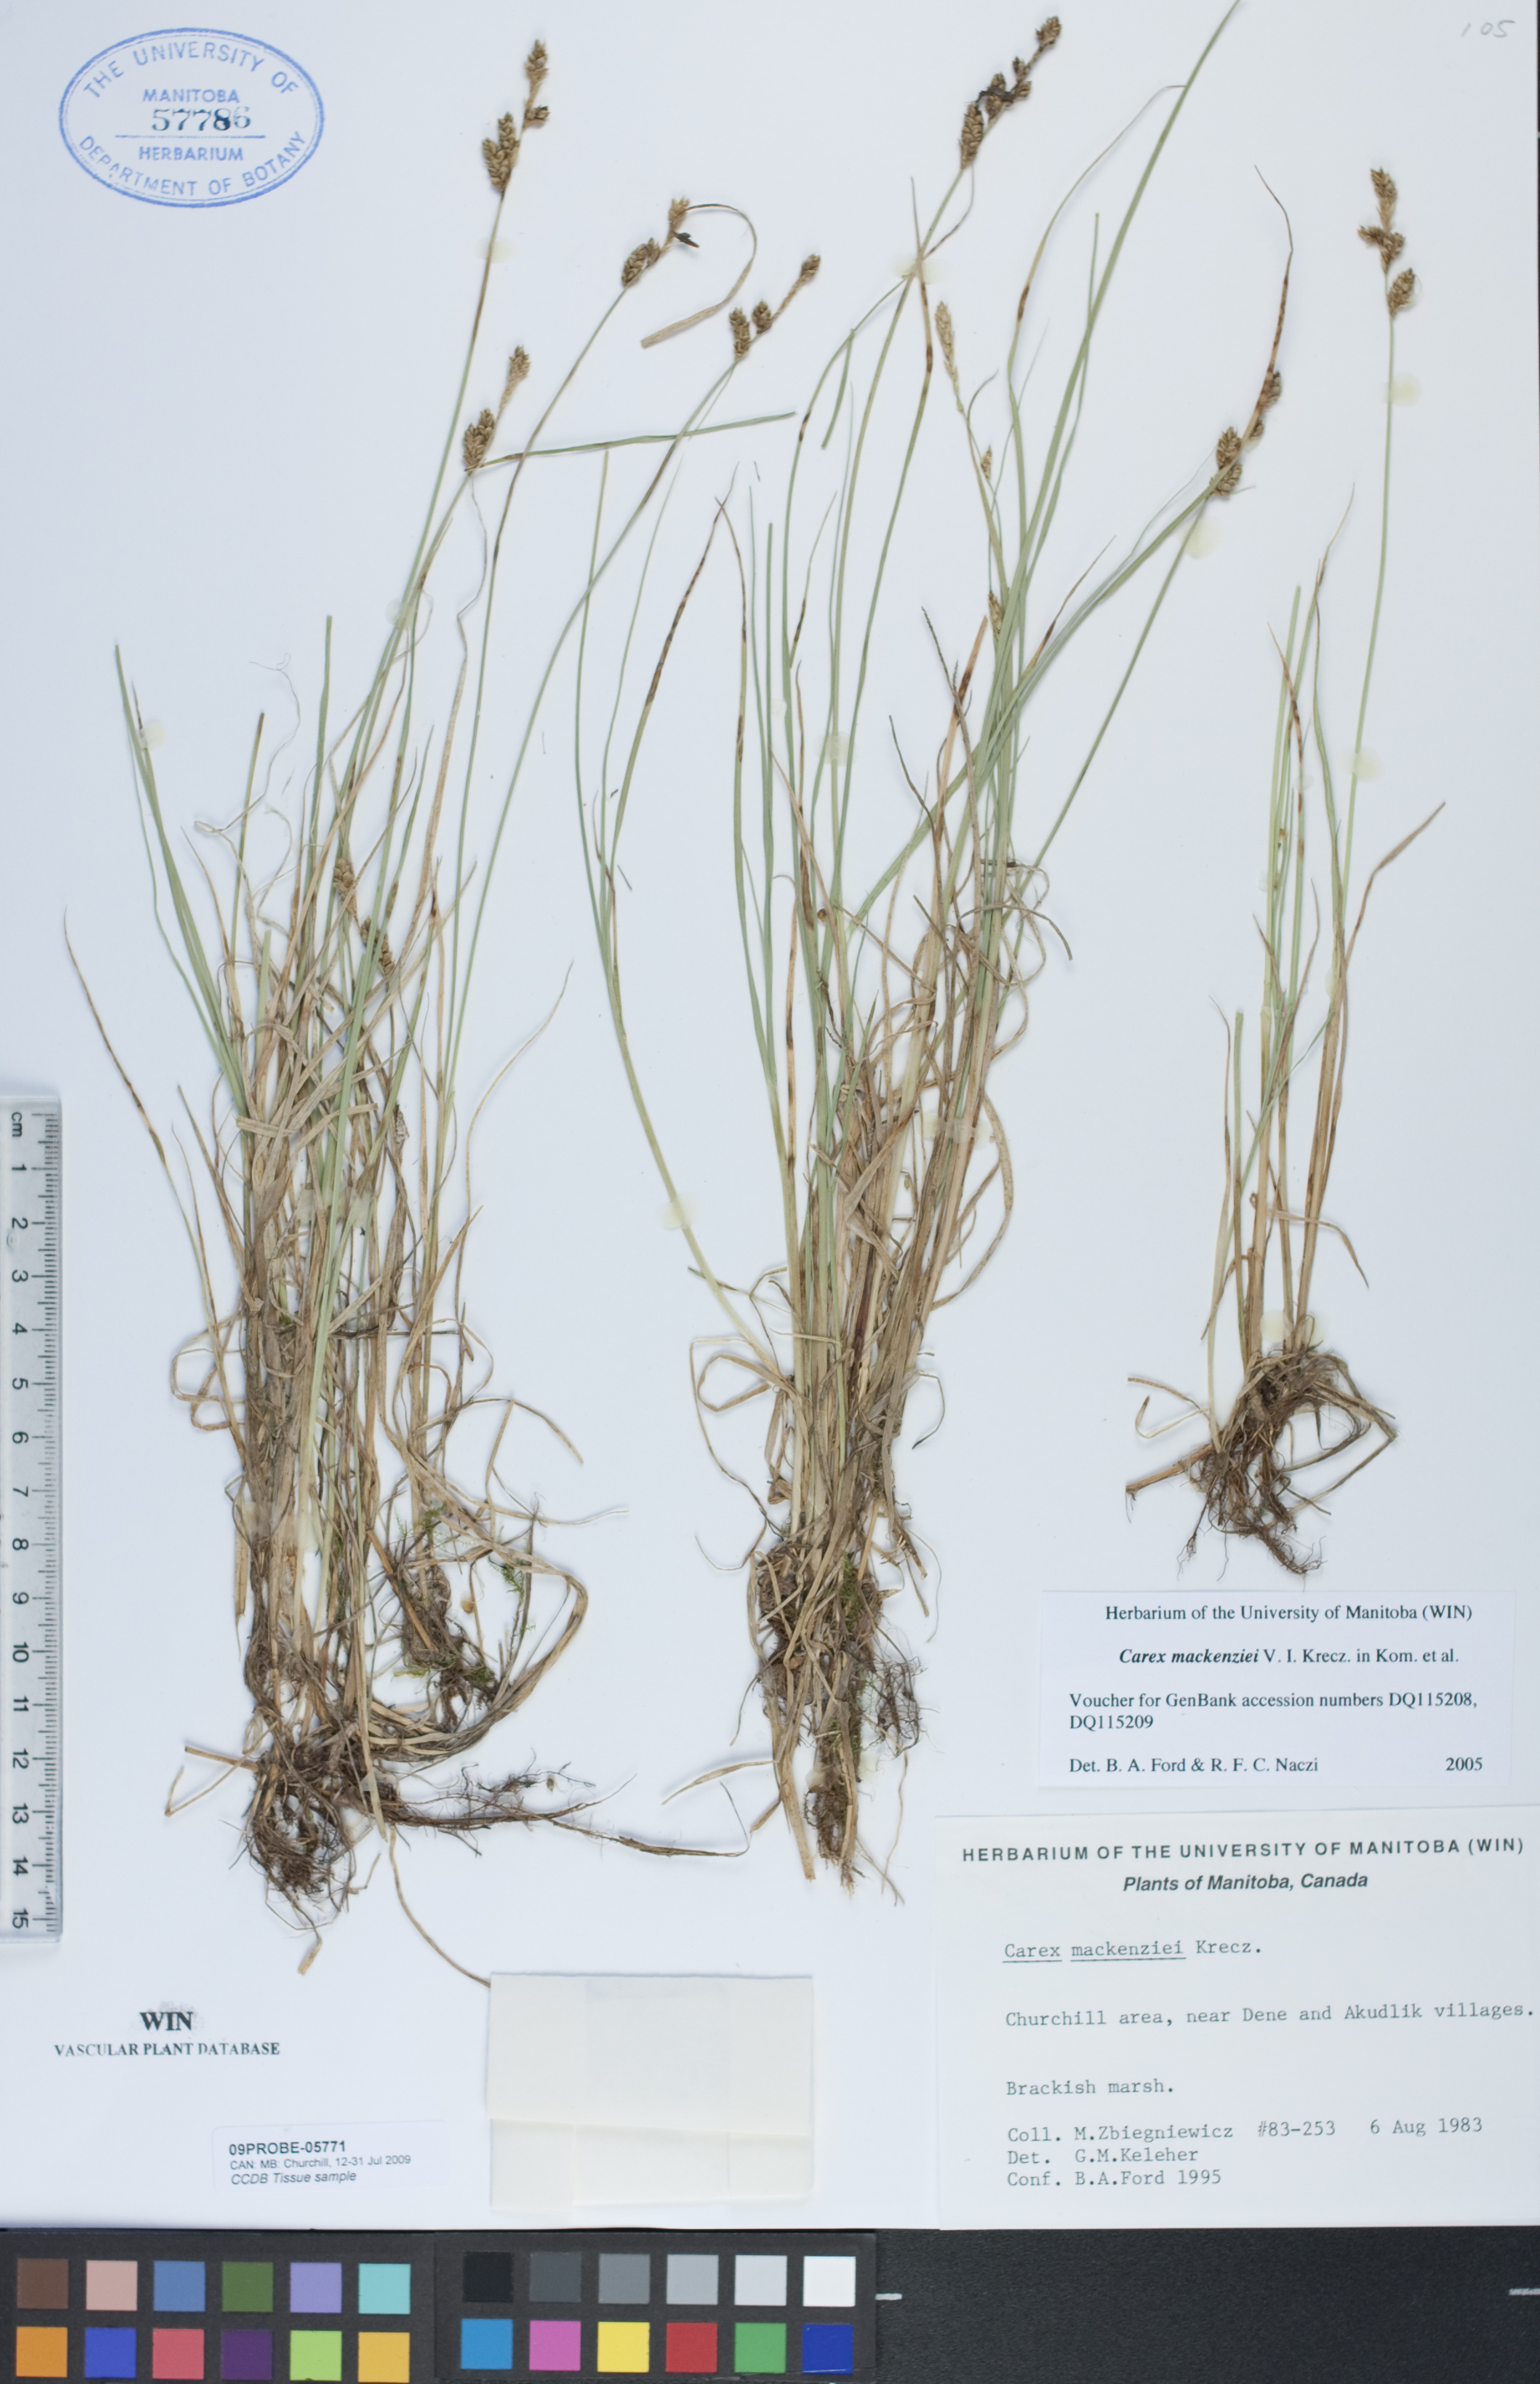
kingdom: Plantae
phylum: Tracheophyta
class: Liliopsida
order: Poales
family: Cyperaceae
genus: Carex
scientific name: Carex mackenziei
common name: Mackenzie's sedge
